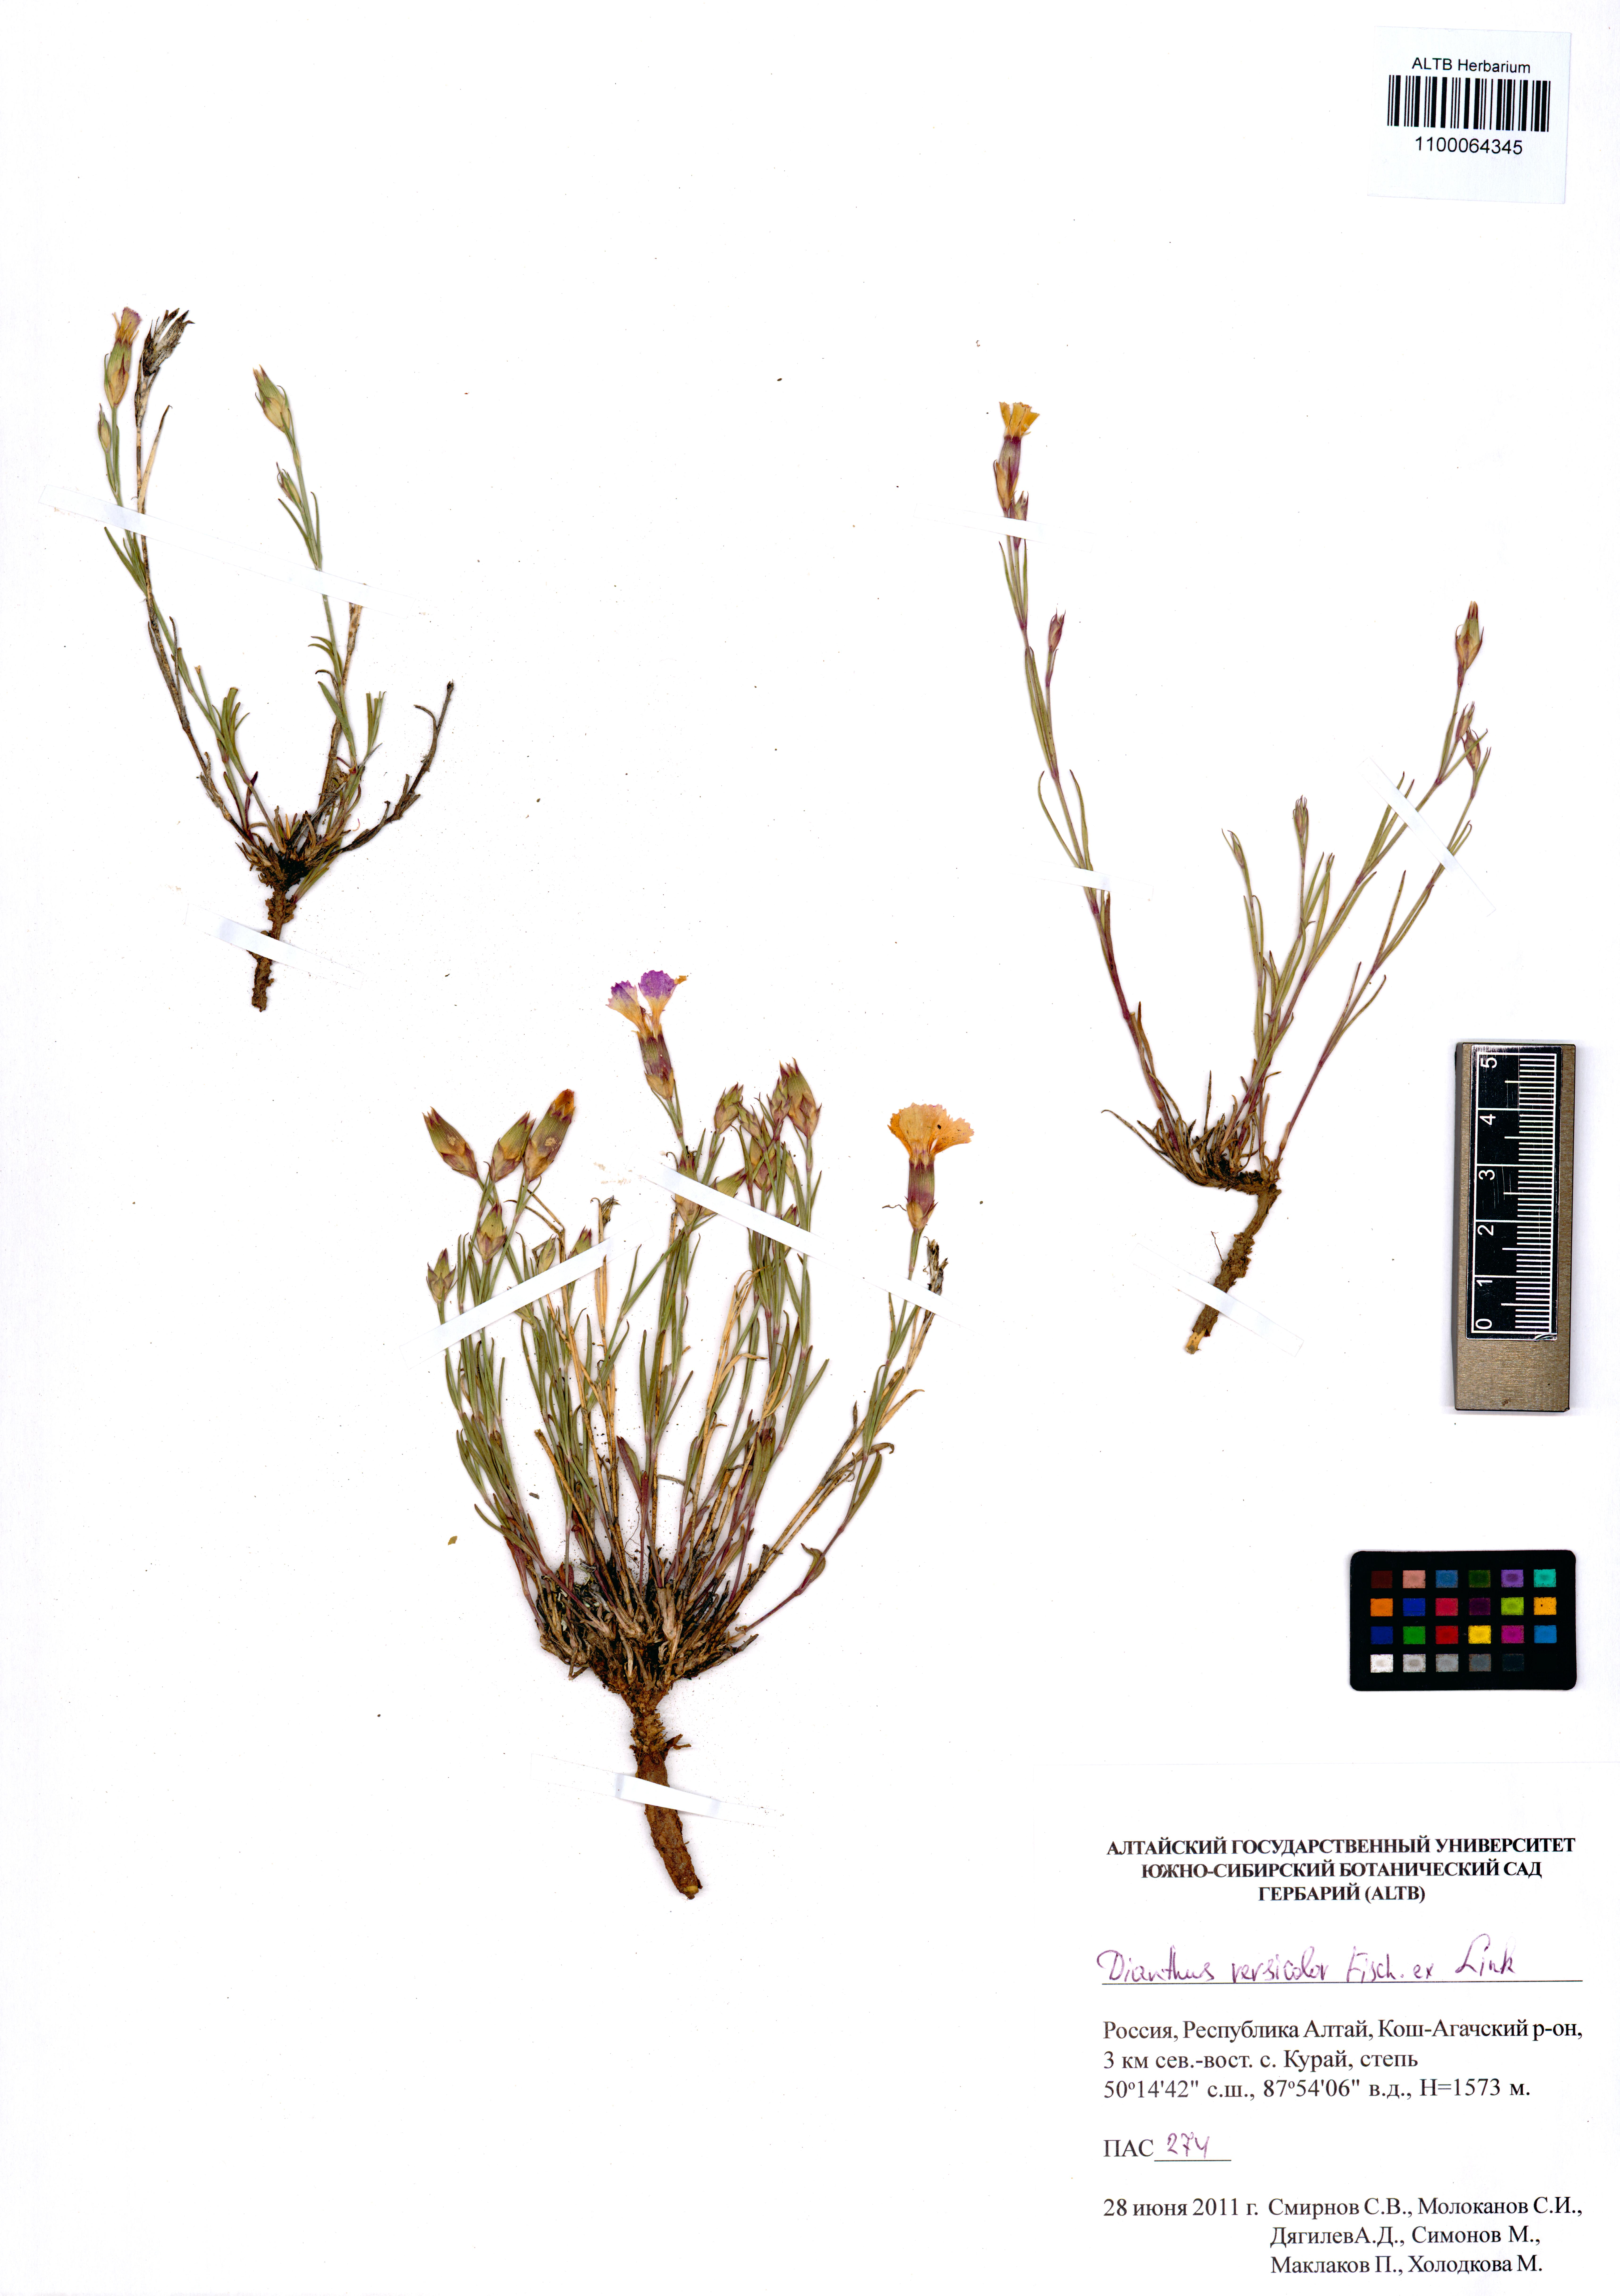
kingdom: Plantae
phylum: Tracheophyta
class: Magnoliopsida
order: Caryophyllales
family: Caryophyllaceae
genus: Dianthus
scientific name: Dianthus chinensis
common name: Rainbow pink
